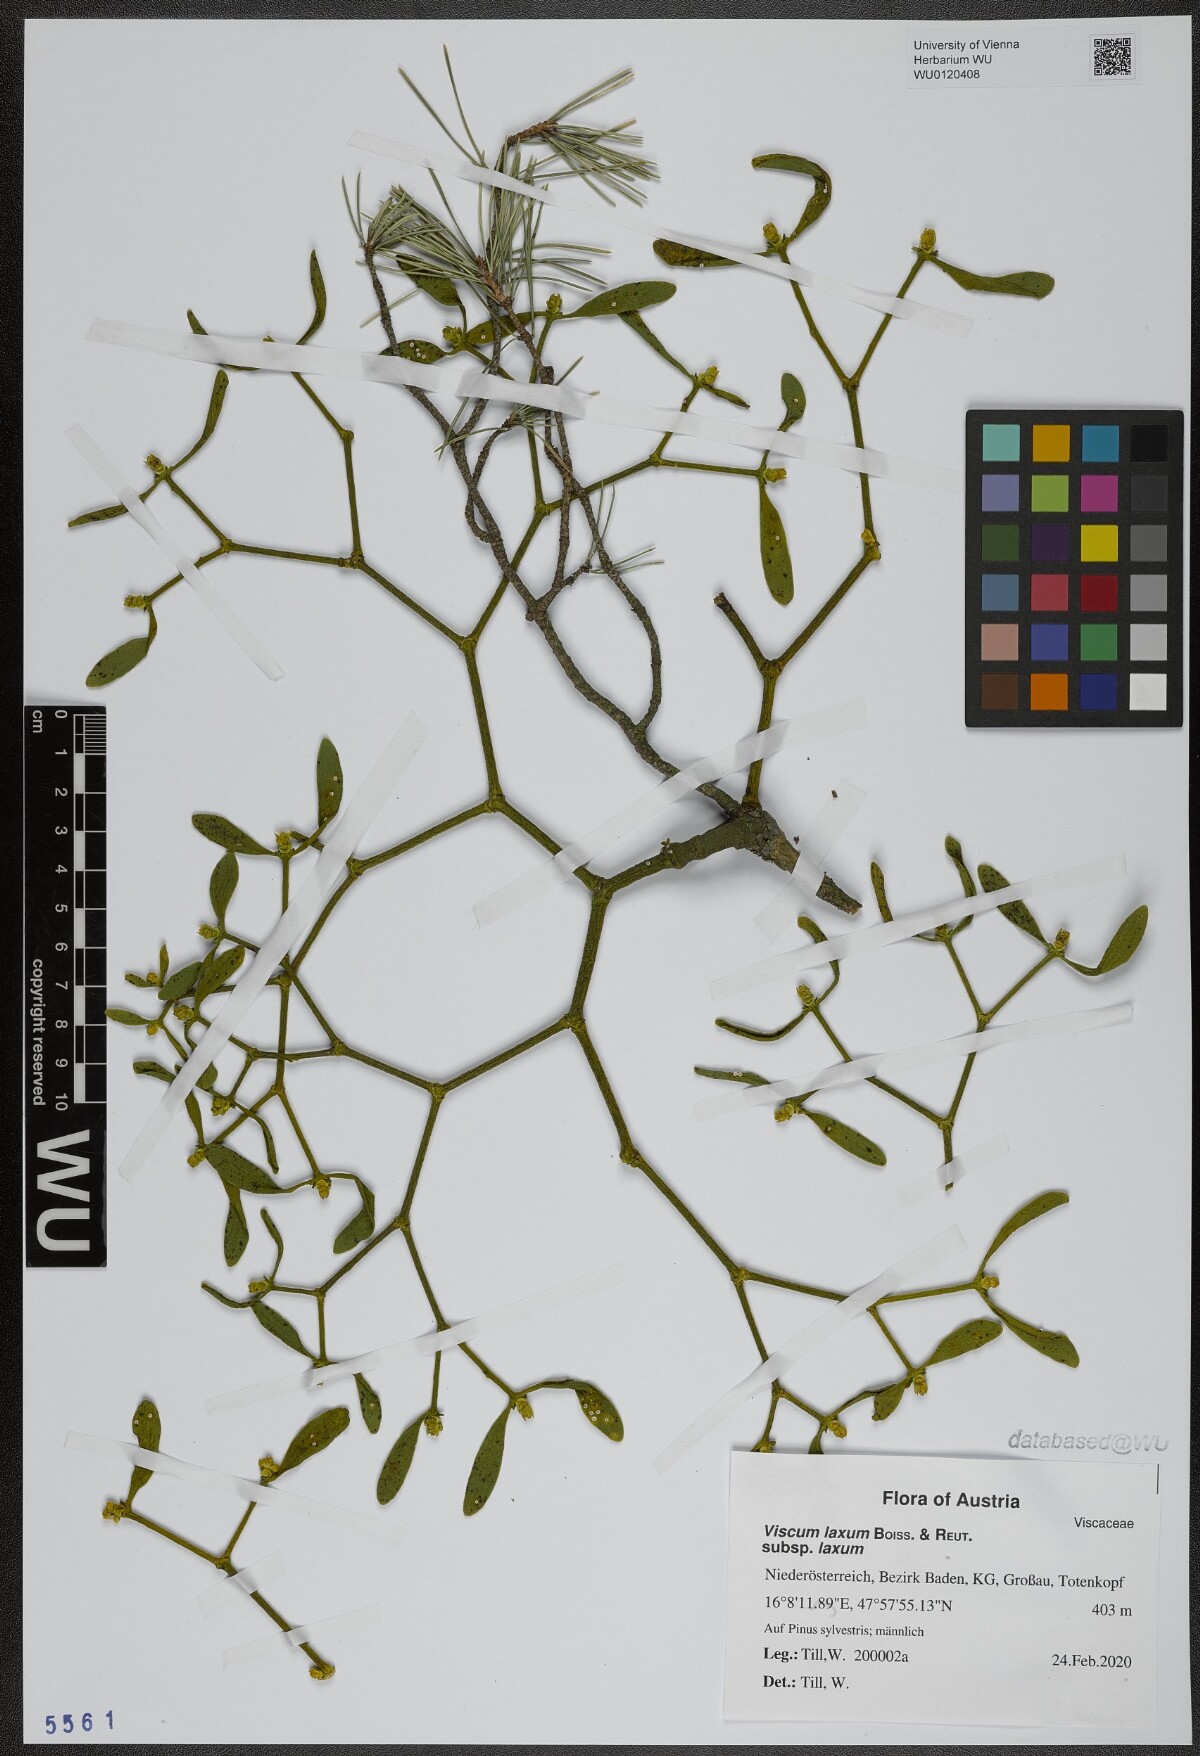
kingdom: Plantae
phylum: Tracheophyta
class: Magnoliopsida
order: Santalales
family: Viscaceae
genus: Viscum
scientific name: Viscum laxum
